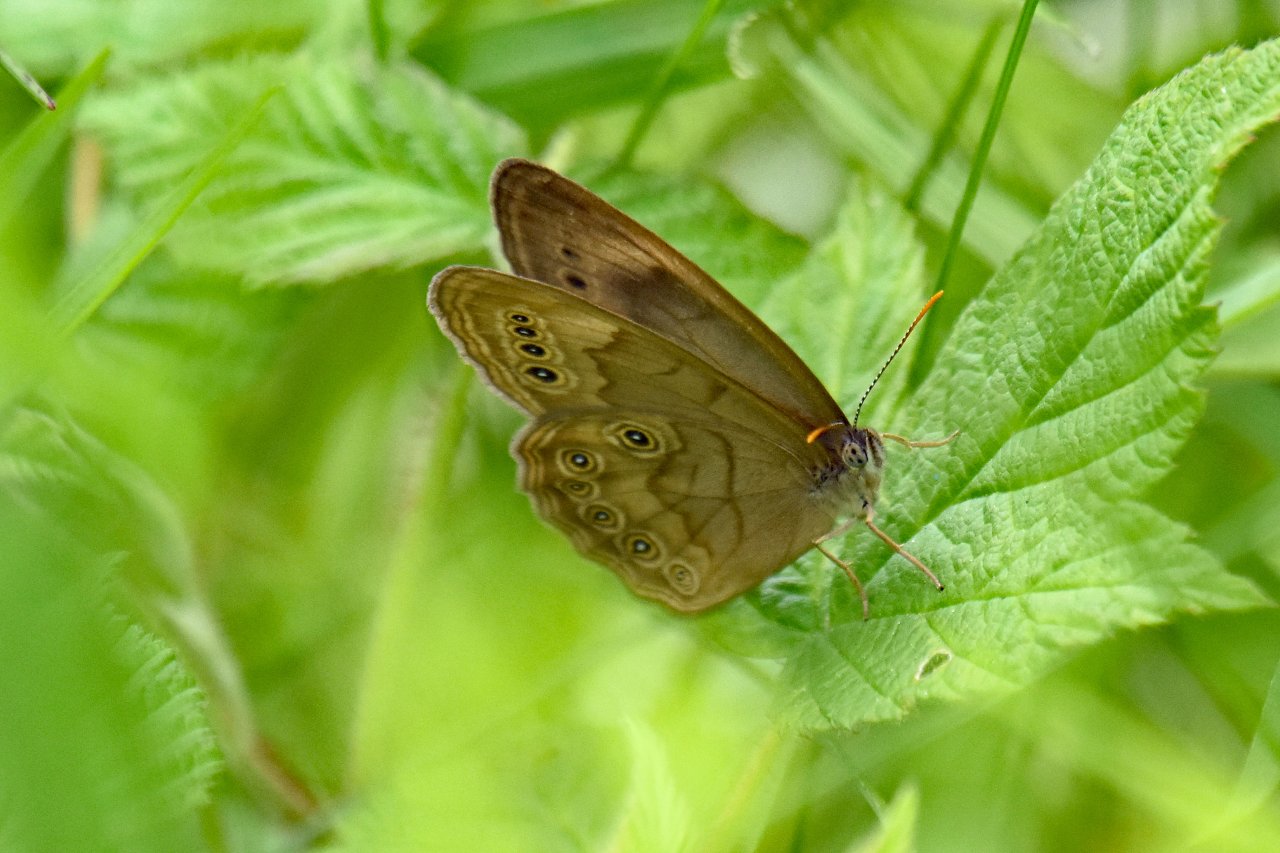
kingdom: Animalia
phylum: Arthropoda
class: Insecta
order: Lepidoptera
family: Nymphalidae
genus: Lethe
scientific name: Lethe eurydice
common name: Eyed Brown
